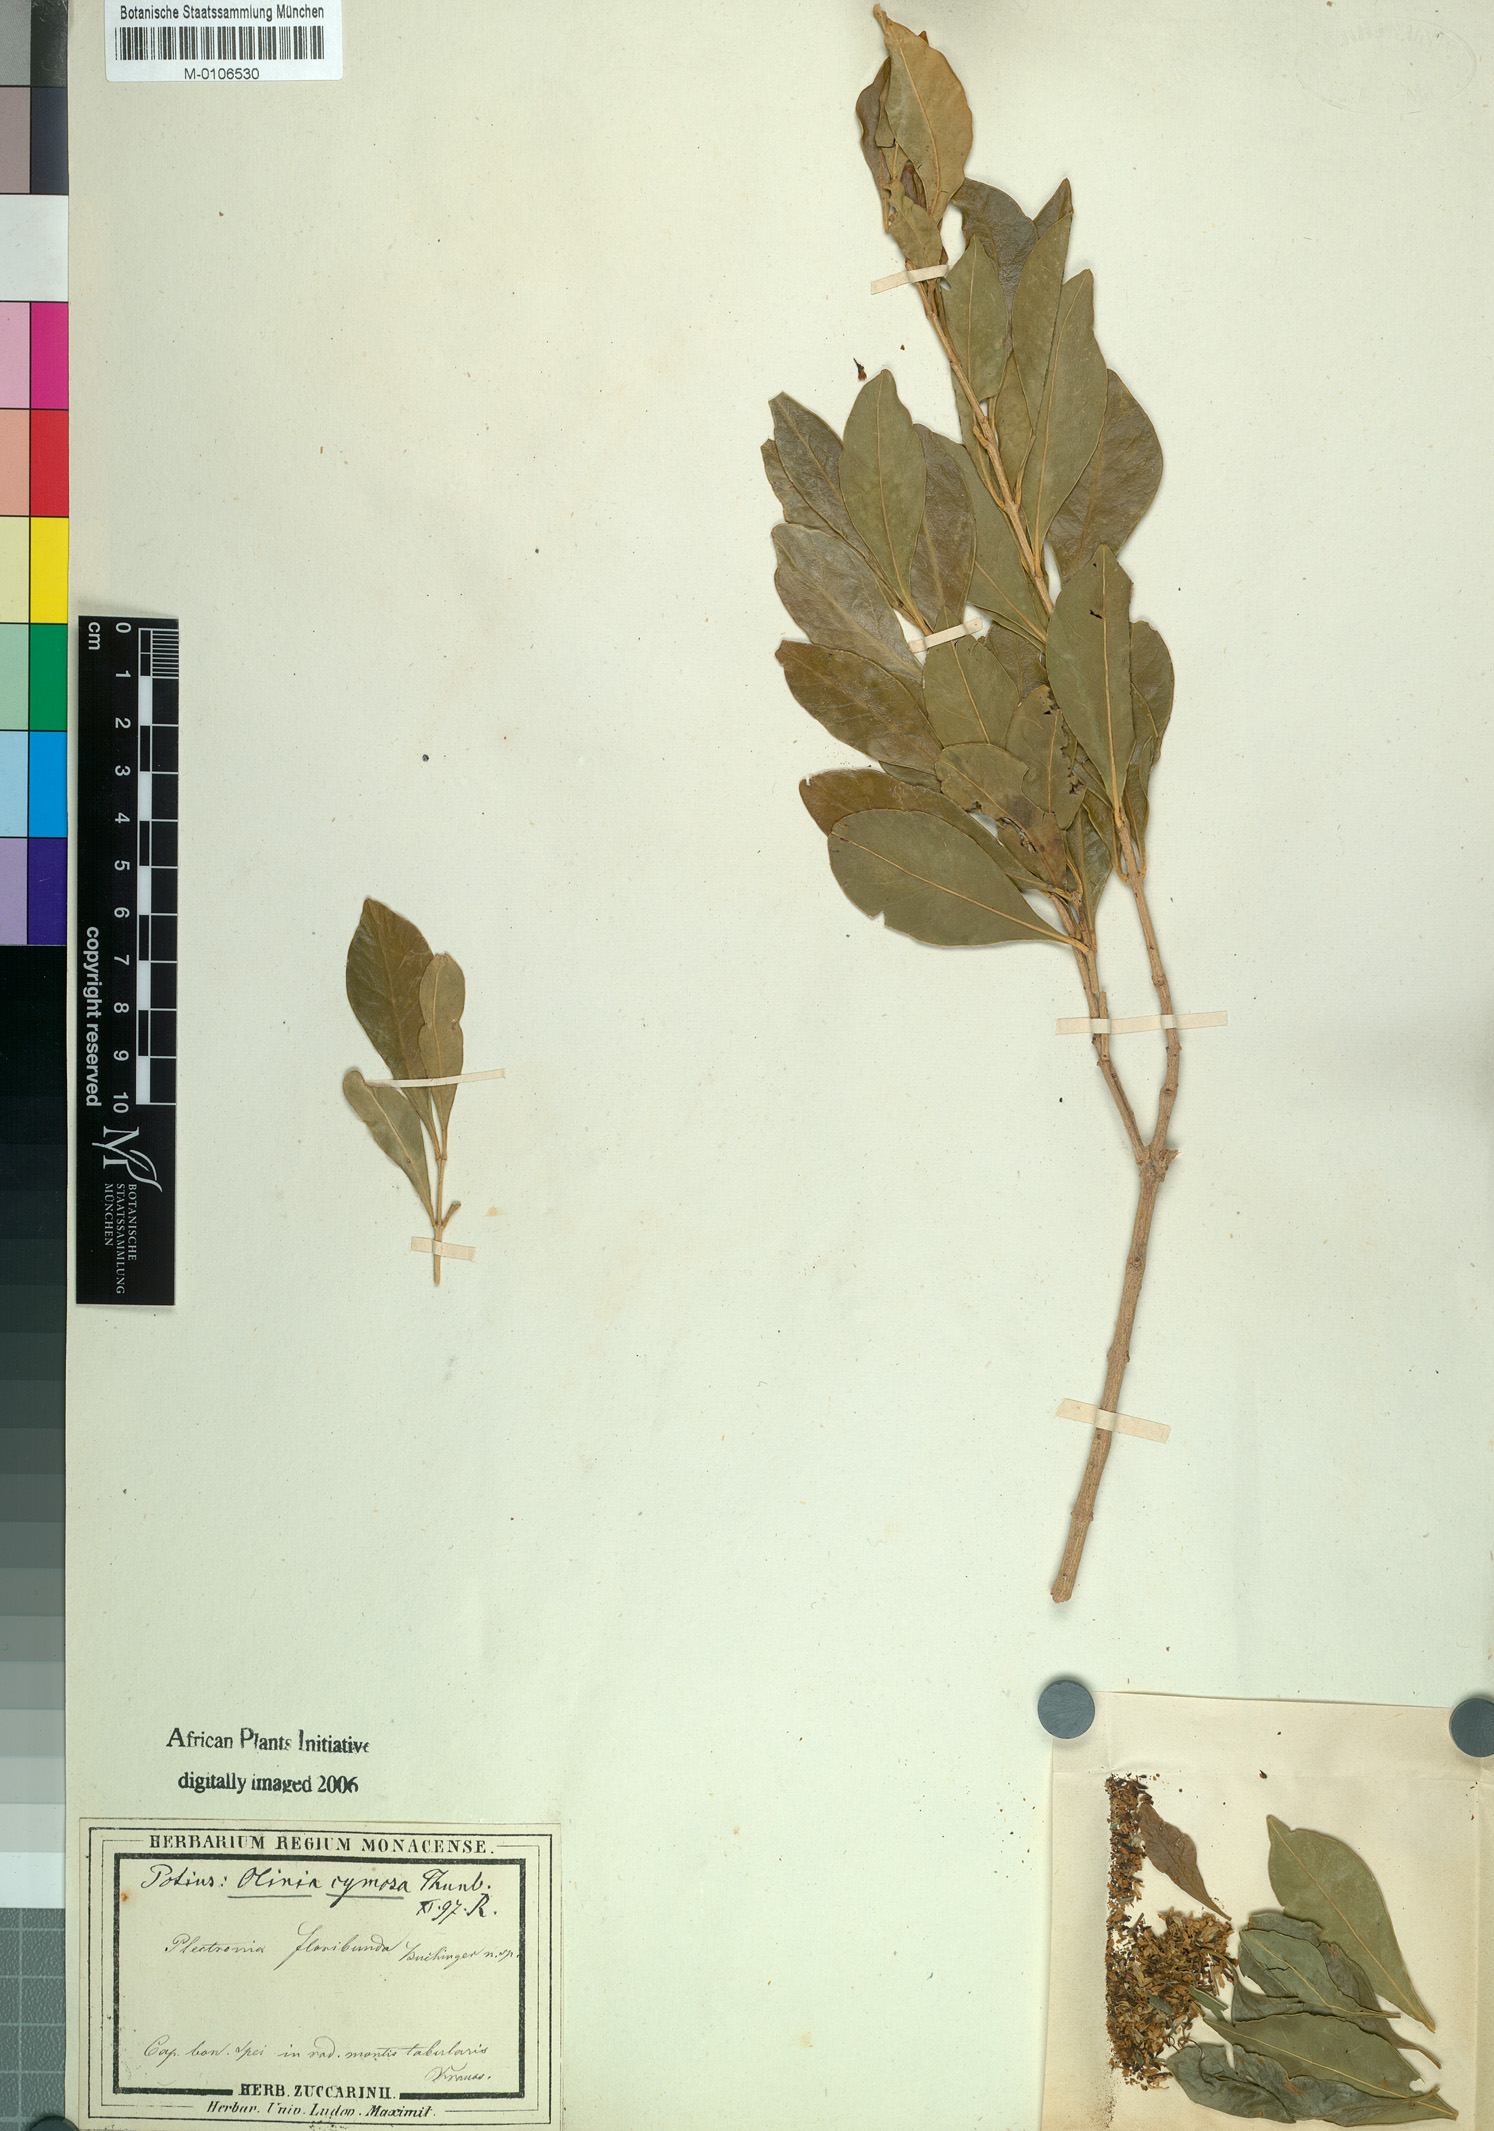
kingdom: Plantae
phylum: Tracheophyta
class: Magnoliopsida
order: Myrtales
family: Penaeaceae
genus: Olinia
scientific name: Olinia ventosa
